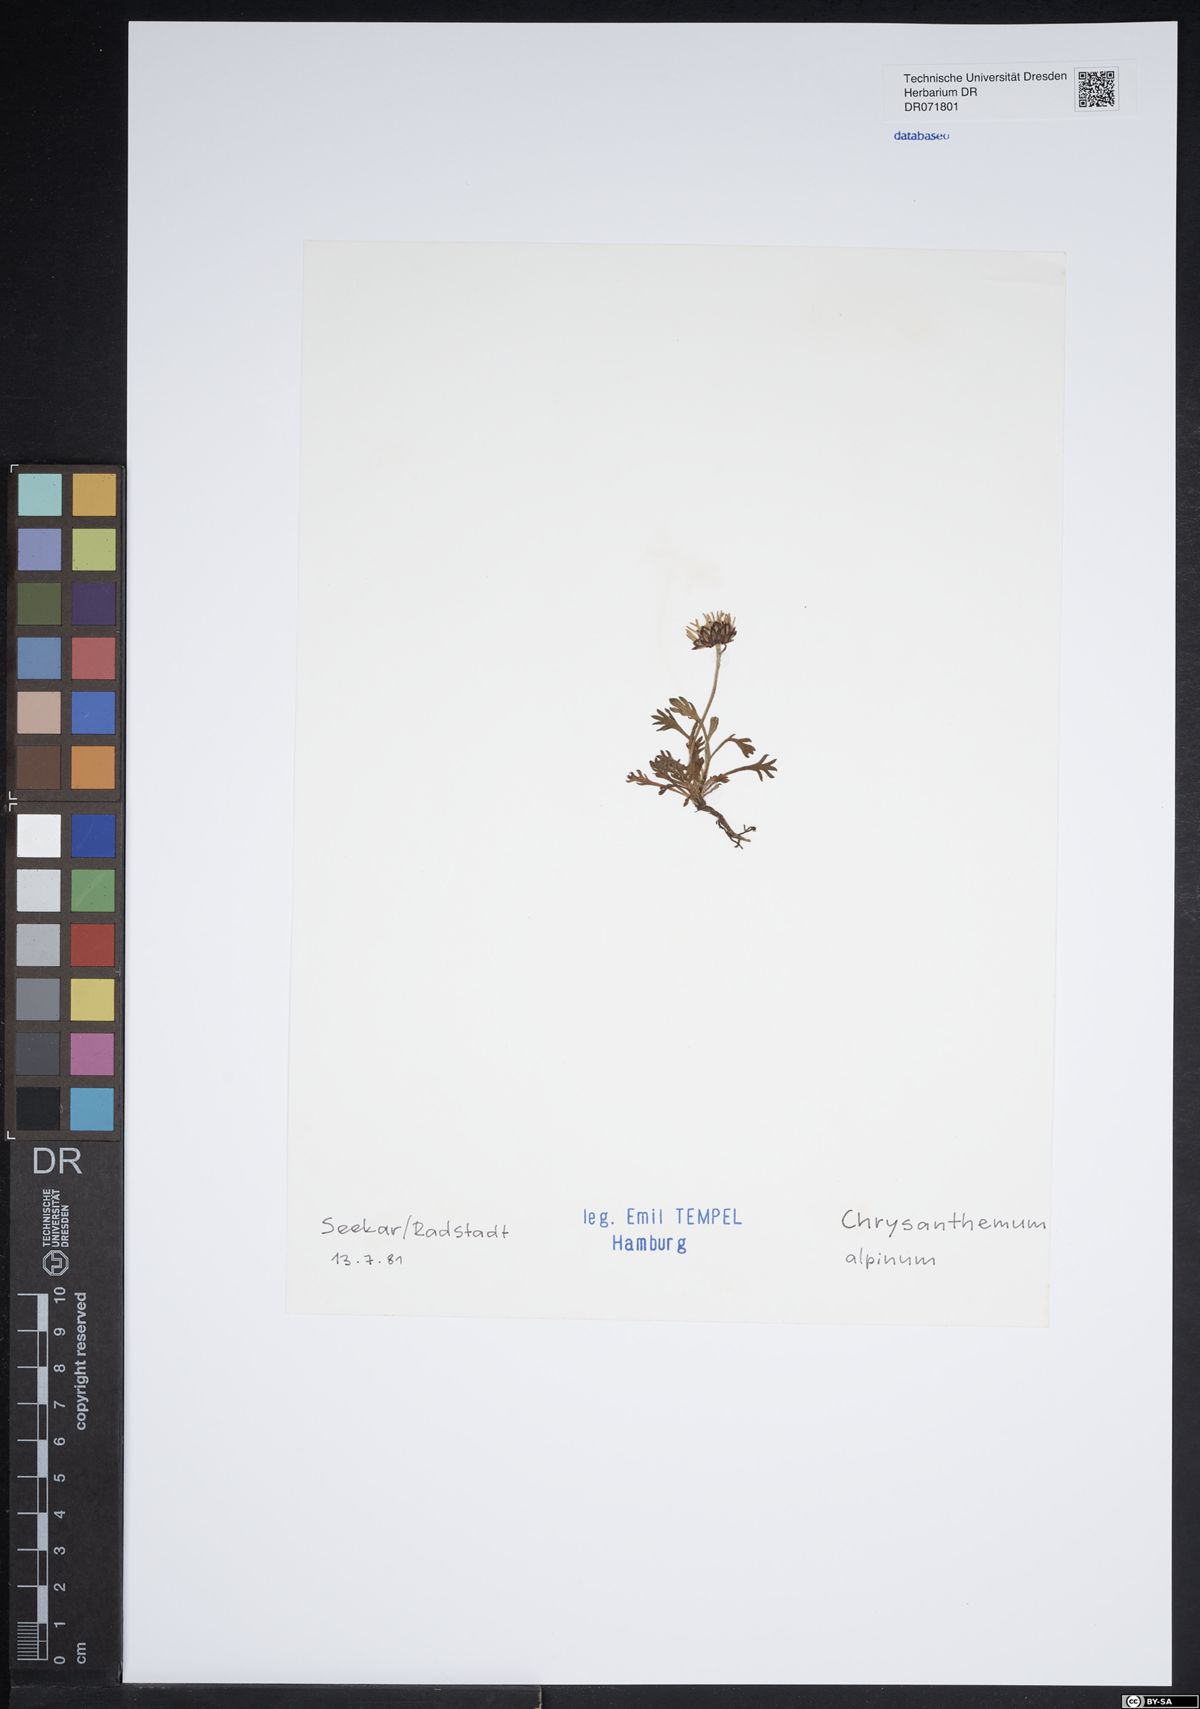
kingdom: Plantae
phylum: Tracheophyta
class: Magnoliopsida
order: Asterales
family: Asteraceae
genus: Leucanthemopsis
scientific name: Leucanthemopsis alpina
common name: Alpine moon daisy
